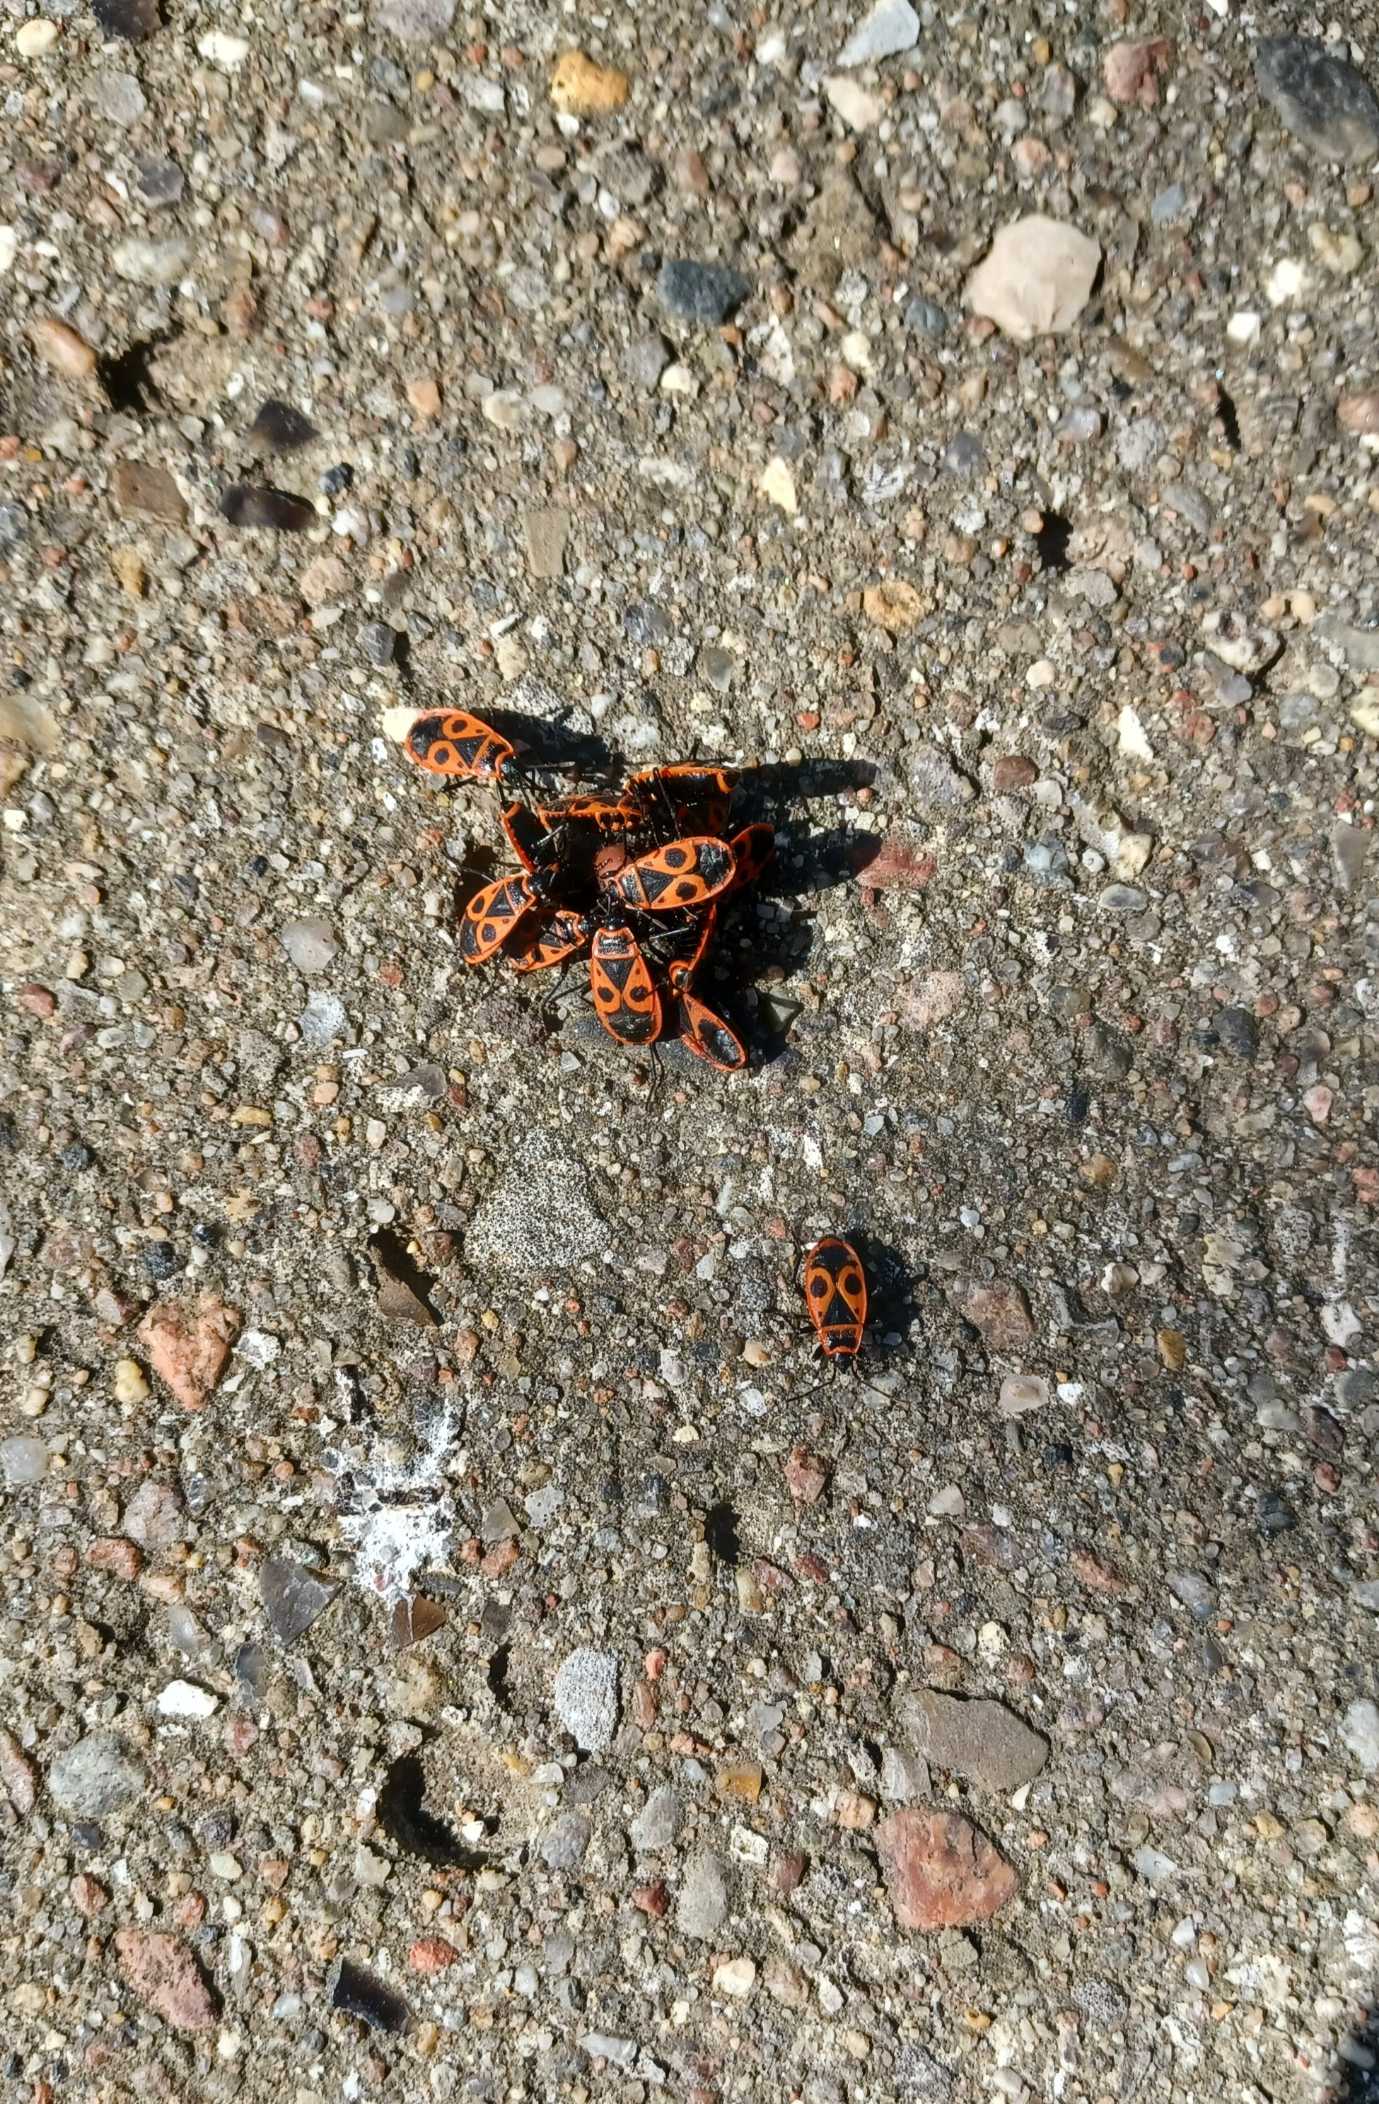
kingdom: Animalia
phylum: Arthropoda
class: Insecta
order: Hemiptera
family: Pyrrhocoridae
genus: Pyrrhocoris
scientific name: Pyrrhocoris apterus
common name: Ildtæge
